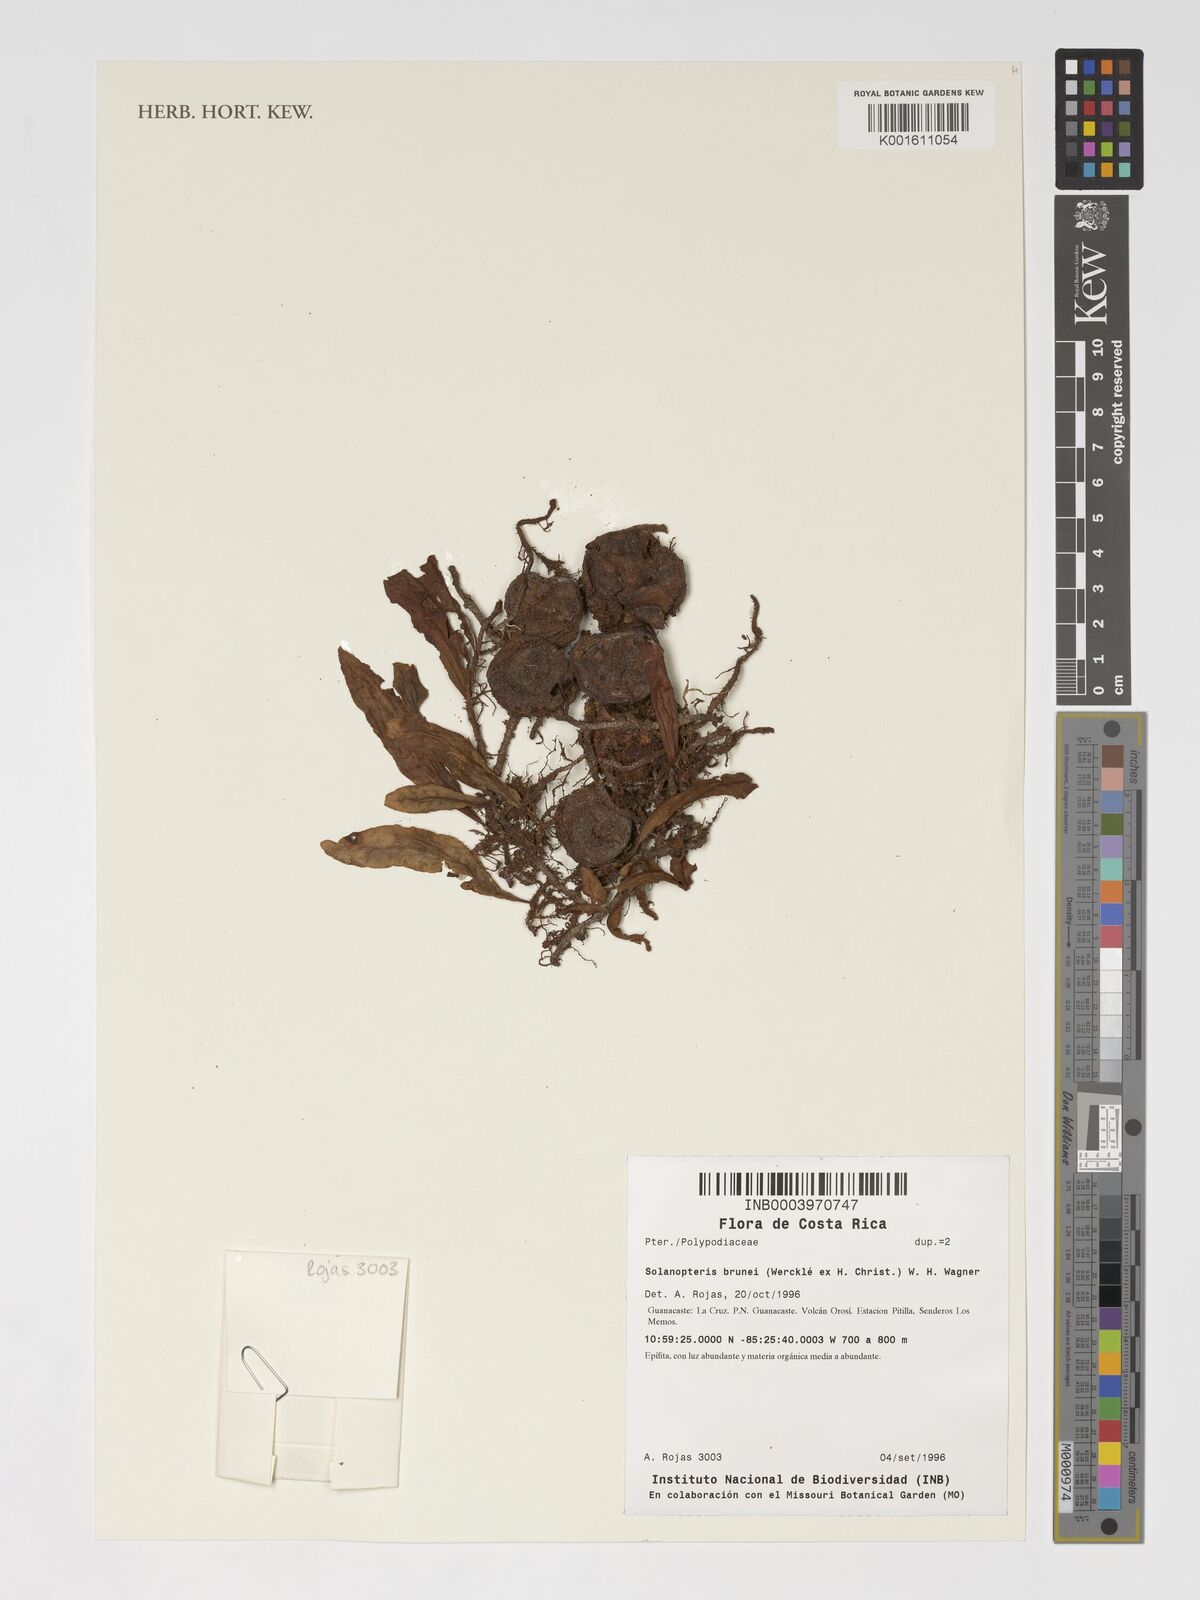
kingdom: Plantae
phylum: Tracheophyta
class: Polypodiopsida
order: Polypodiales
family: Polypodiaceae
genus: Microgramma
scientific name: Microgramma brunei
